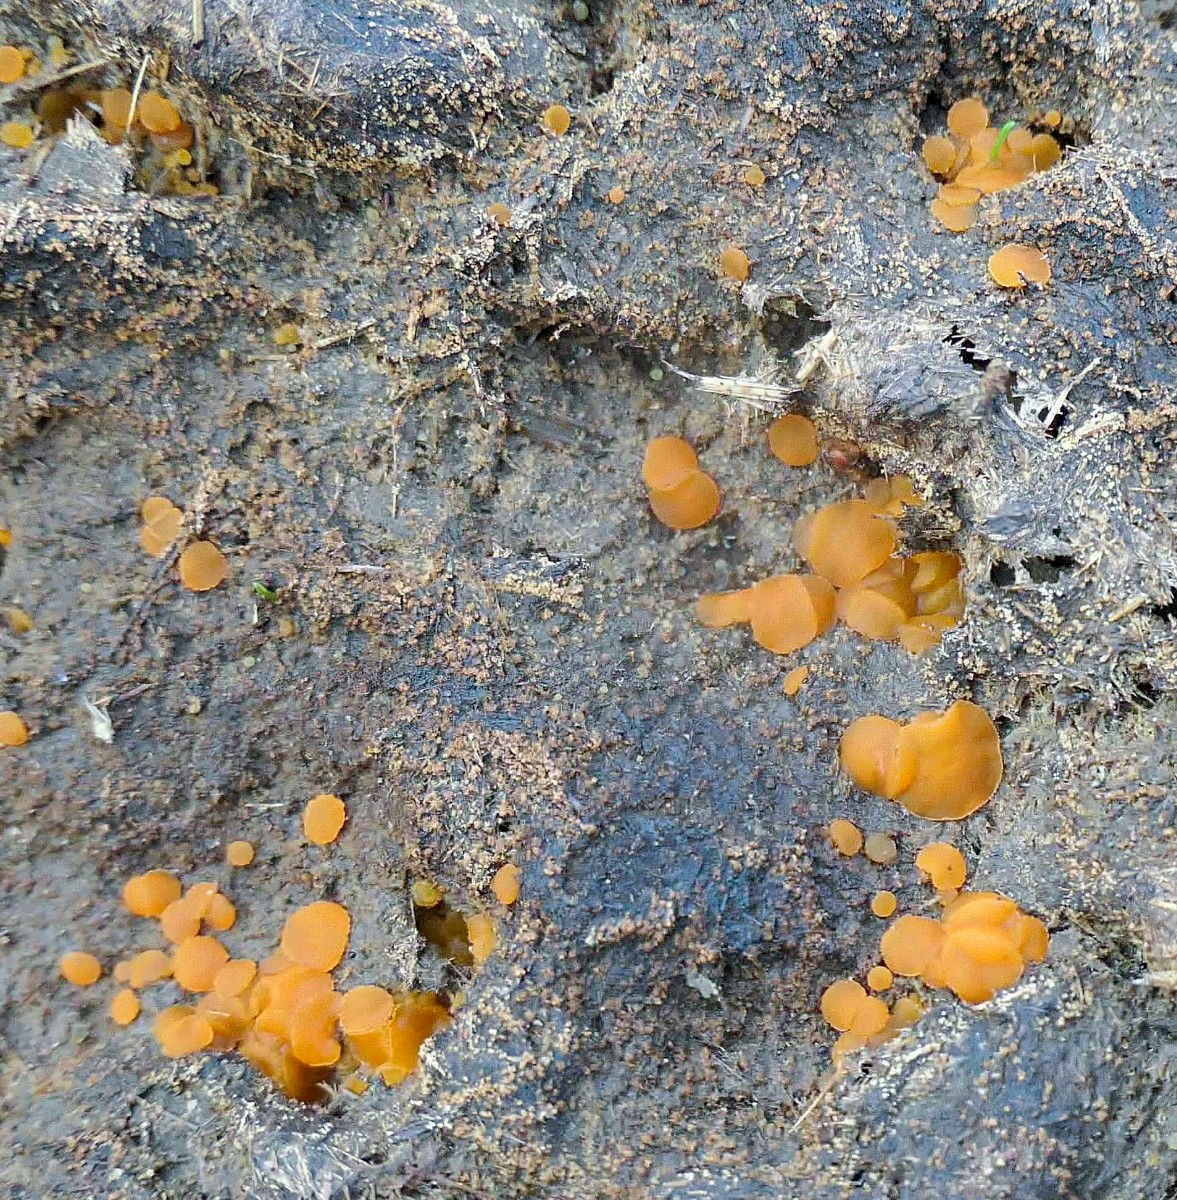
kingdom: Fungi
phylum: Ascomycota
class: Pezizomycetes
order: Pezizales
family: Pyronemataceae
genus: Cheilymenia
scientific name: Cheilymenia granulata
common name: møgbæger
